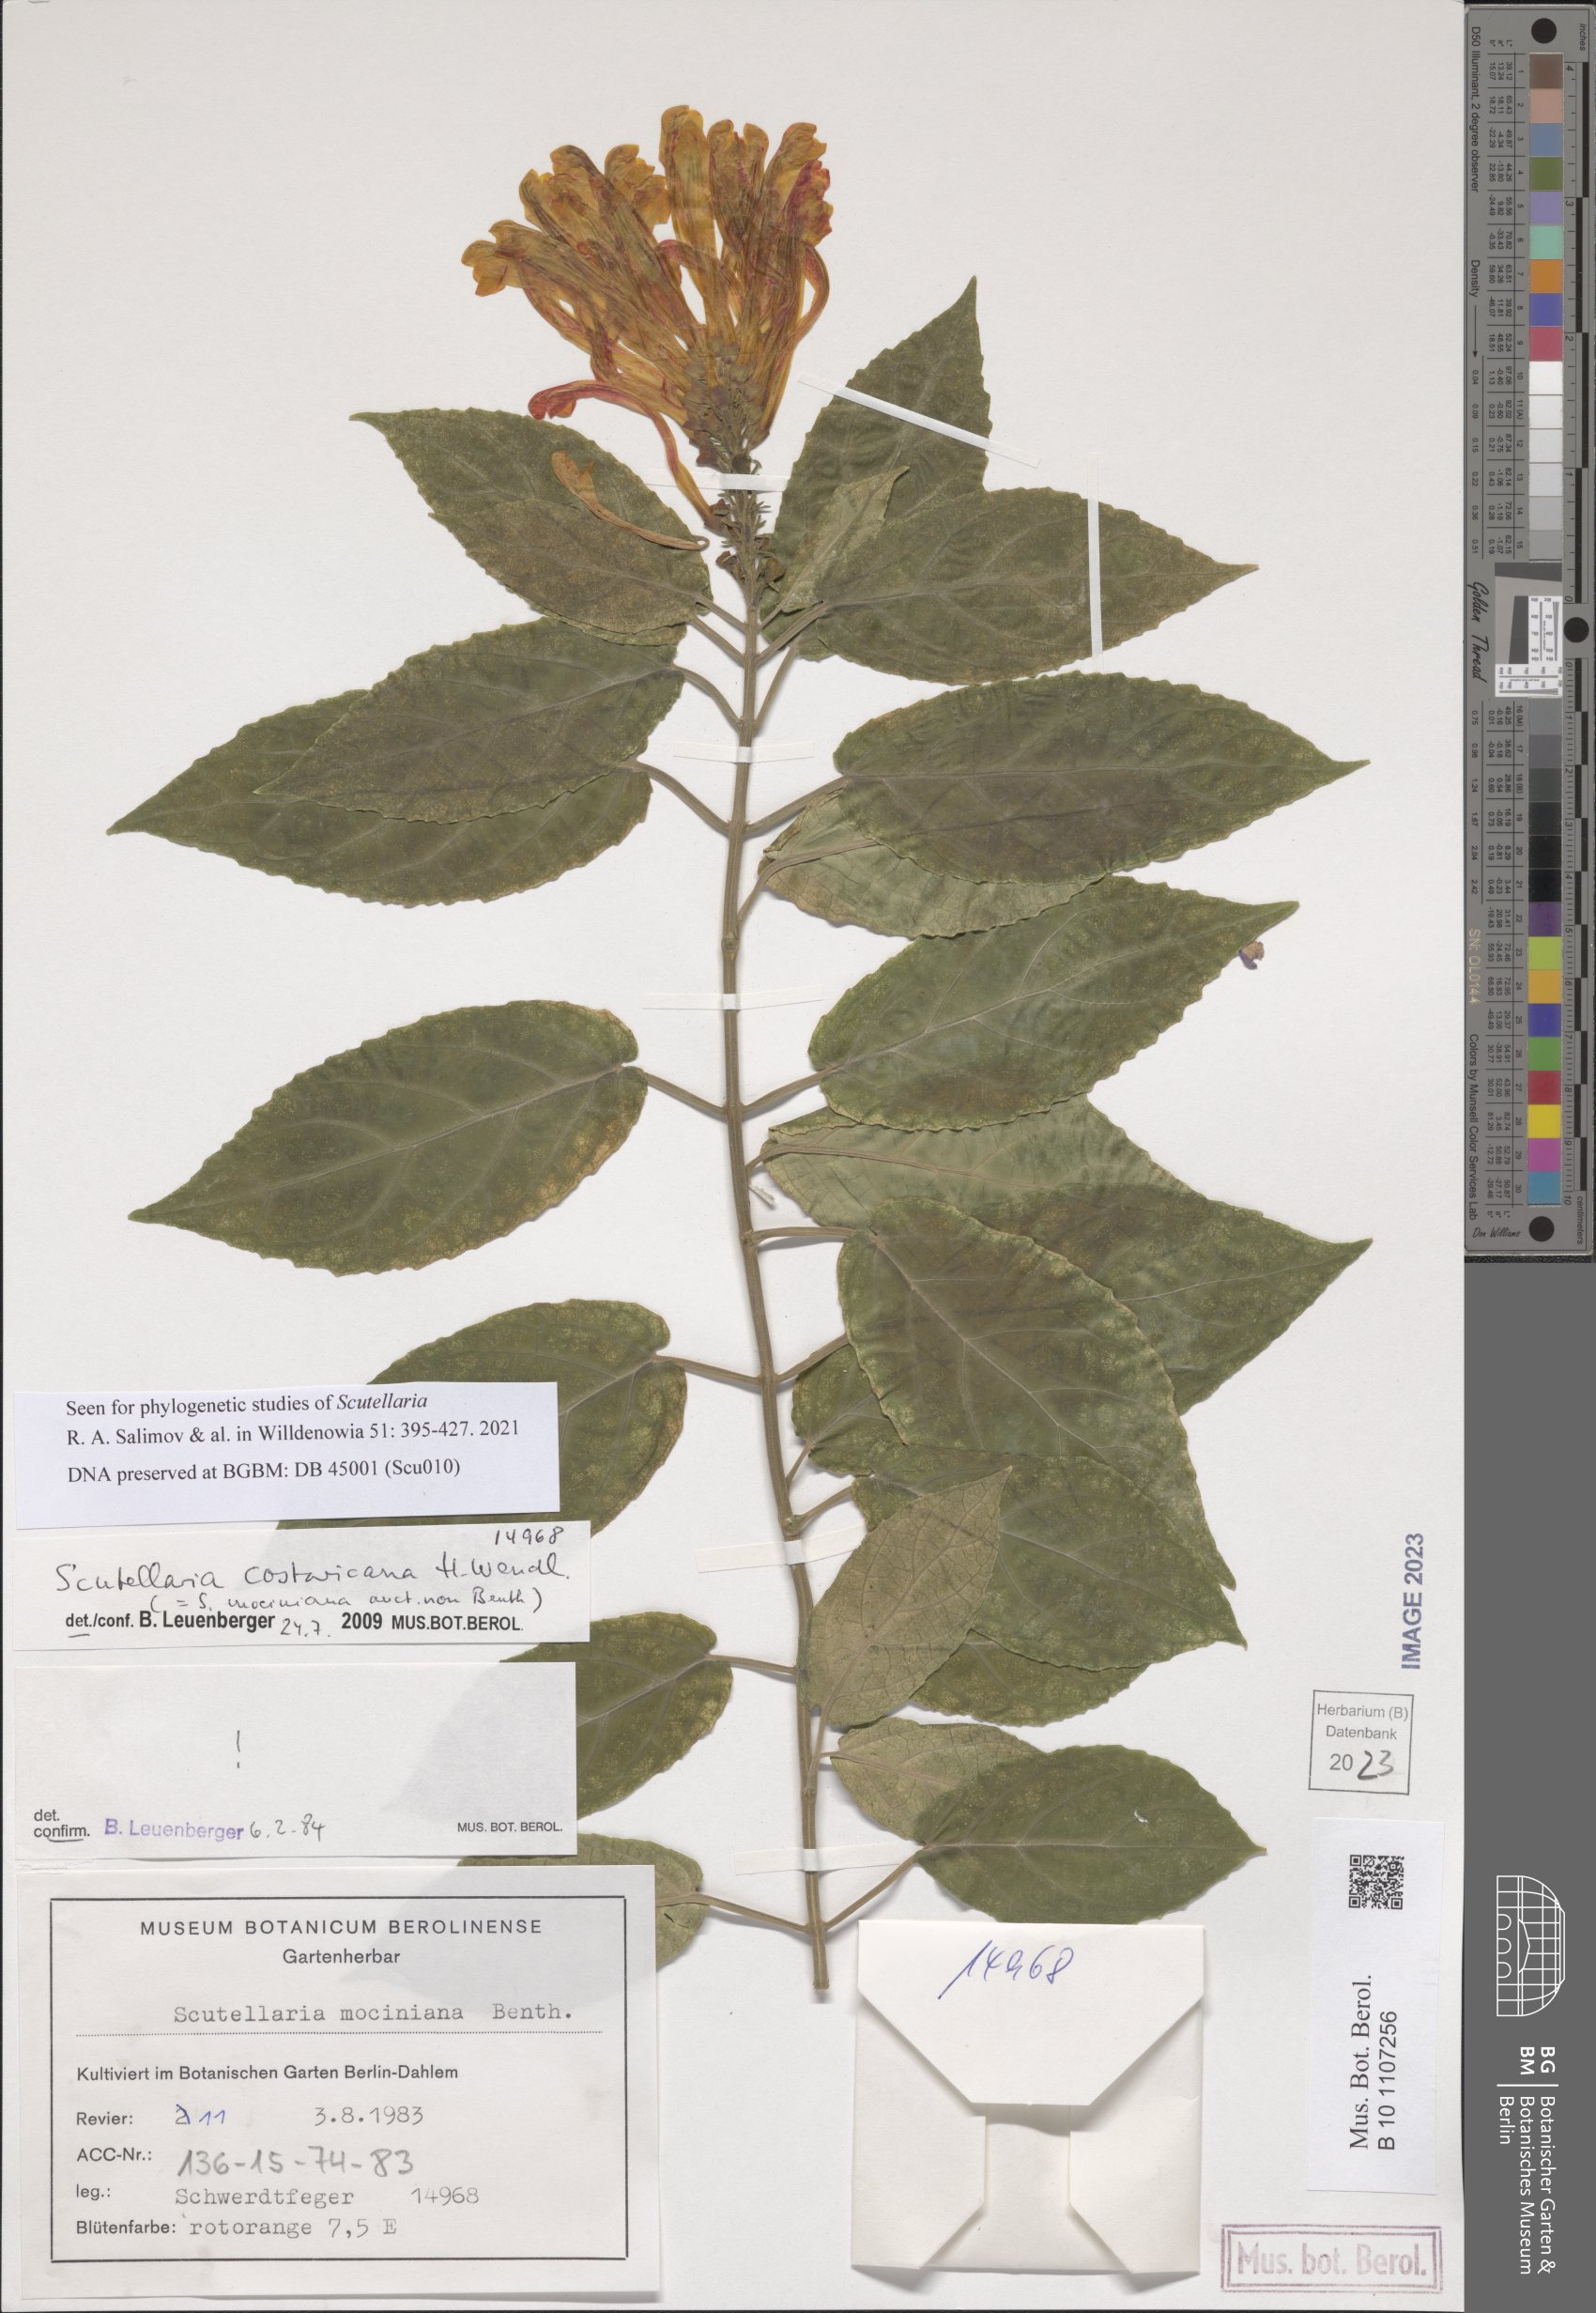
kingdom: Plantae
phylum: Tracheophyta
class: Magnoliopsida
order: Lamiales
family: Lamiaceae
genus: Scutellaria
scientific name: Scutellaria costaricana
